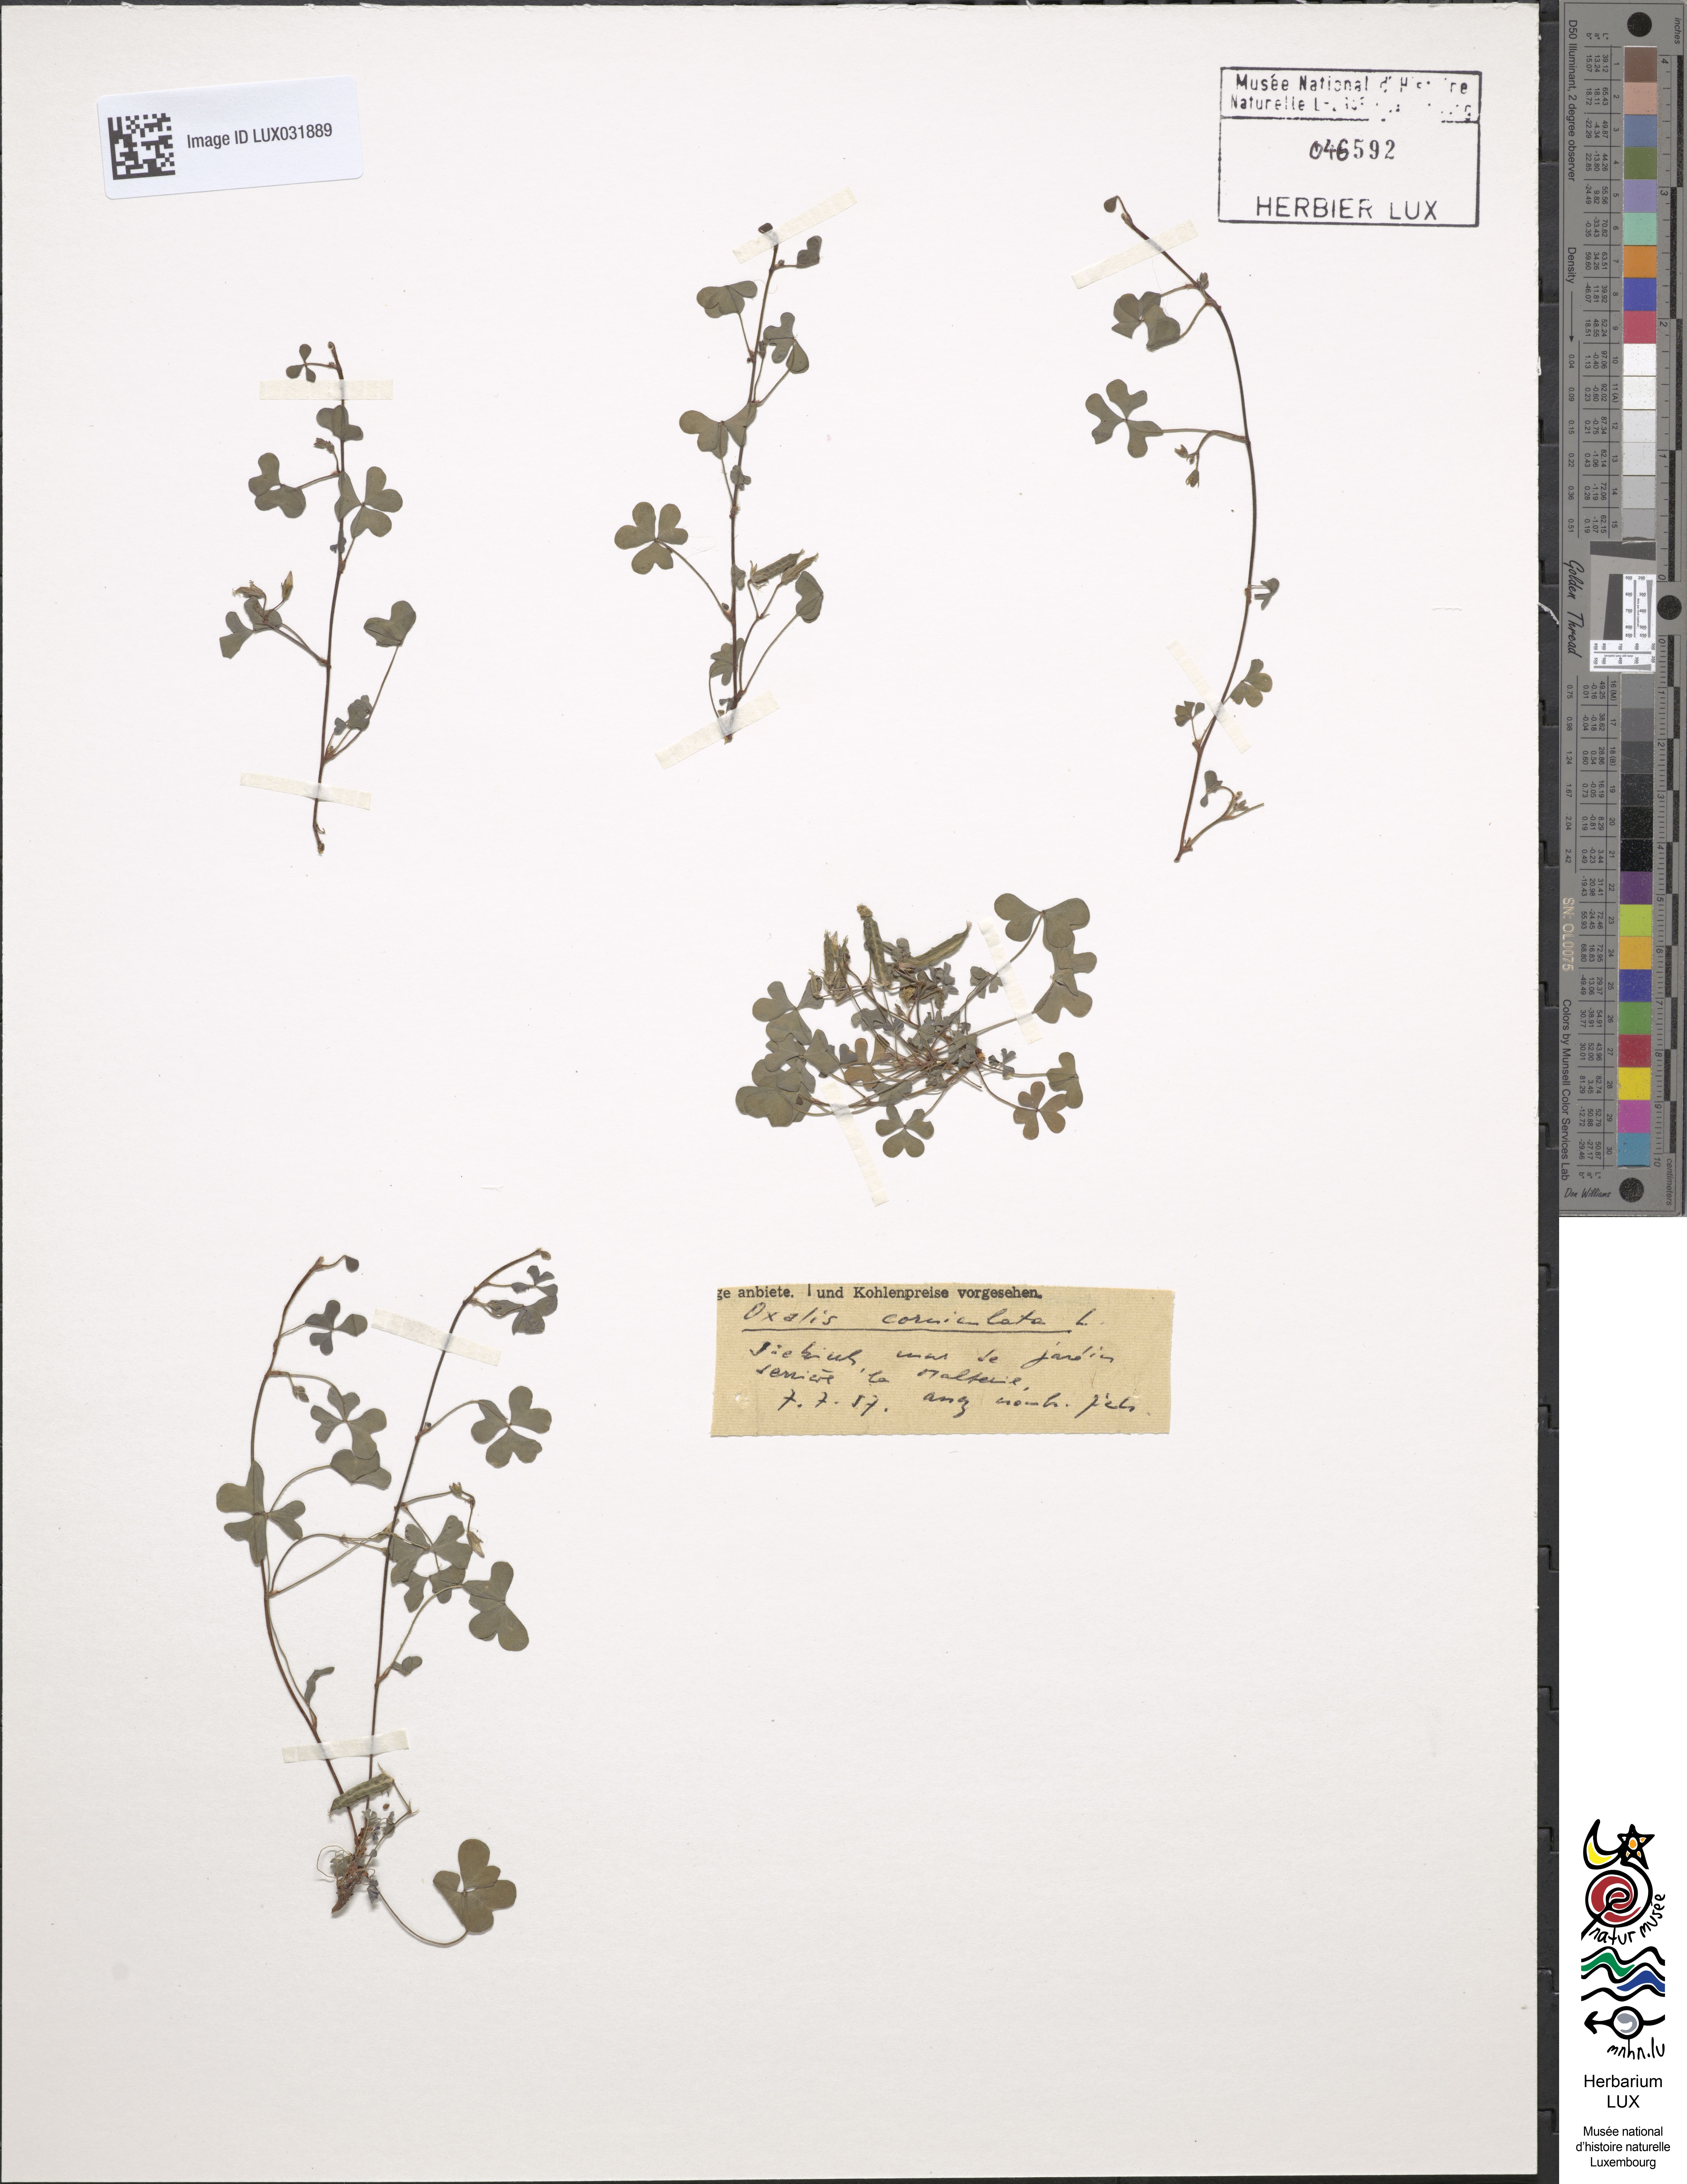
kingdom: Plantae
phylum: Tracheophyta
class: Magnoliopsida
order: Oxalidales
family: Oxalidaceae
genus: Oxalis
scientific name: Oxalis corniculata
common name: Procumbent yellow-sorrel
